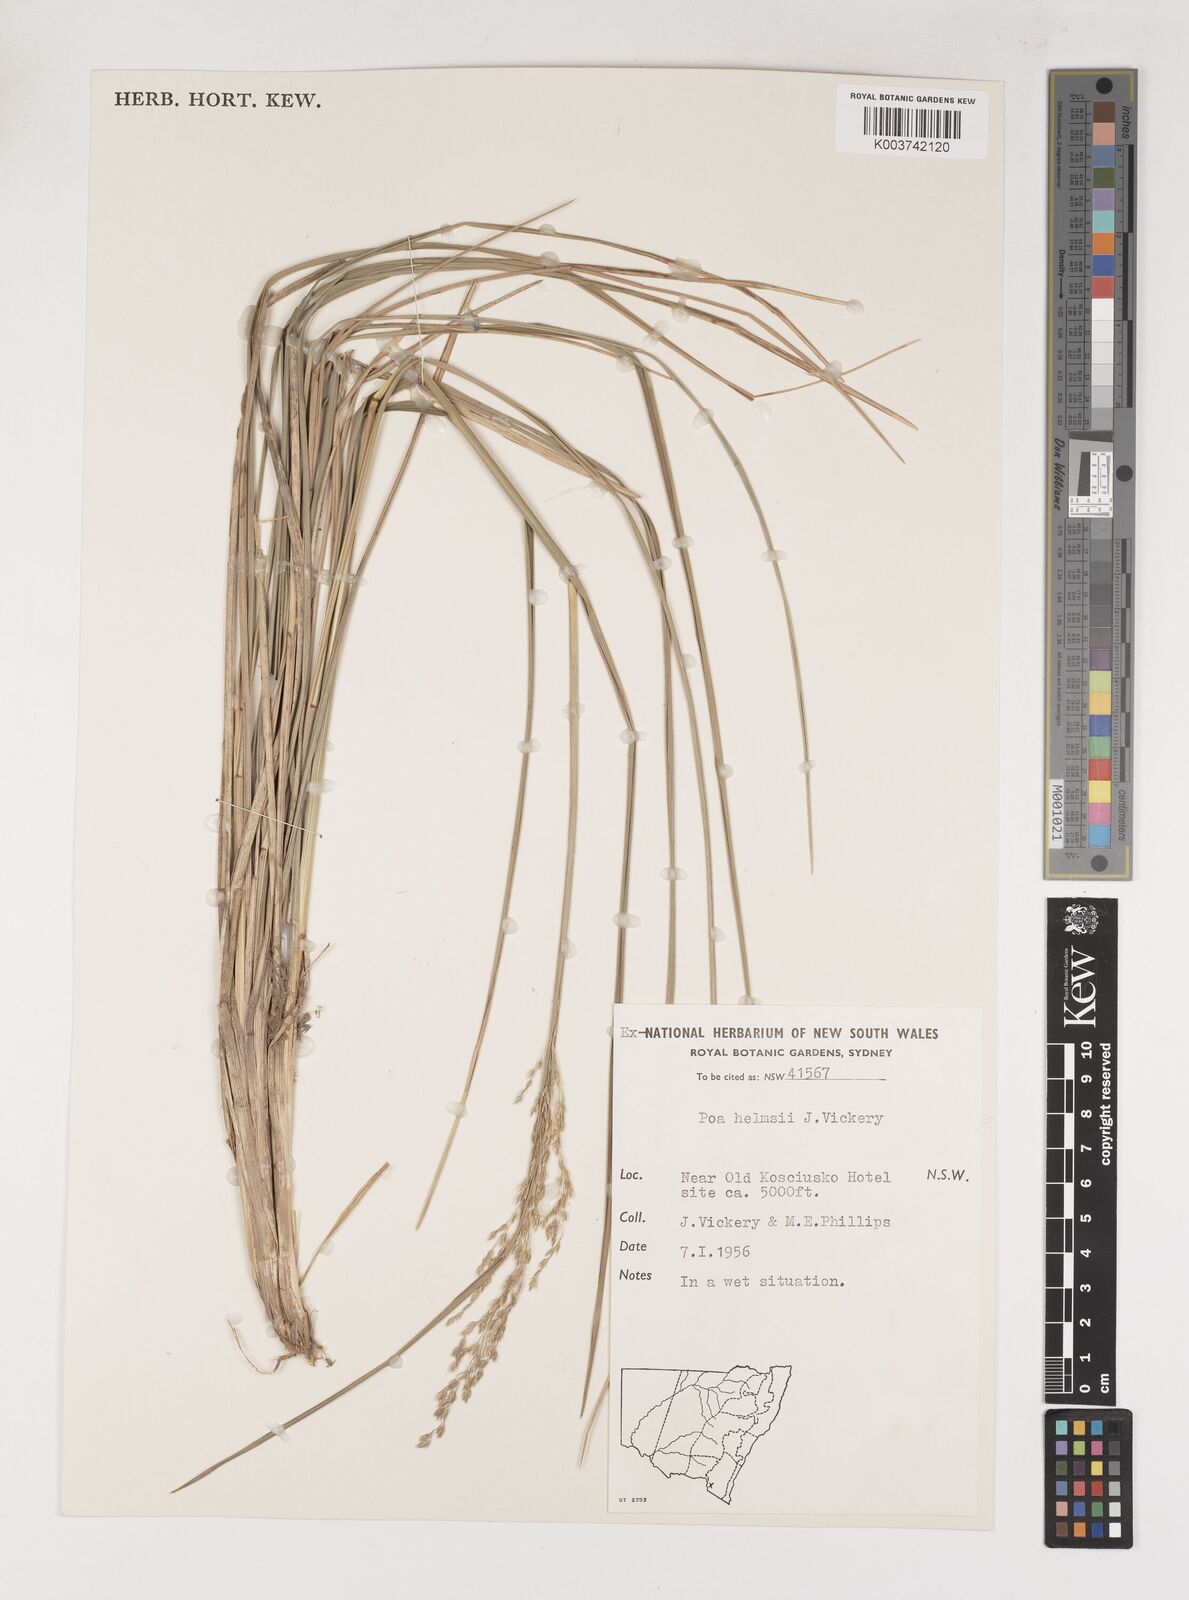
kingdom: Plantae
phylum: Tracheophyta
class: Liliopsida
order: Poales
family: Poaceae
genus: Poa
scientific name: Poa helmsii
